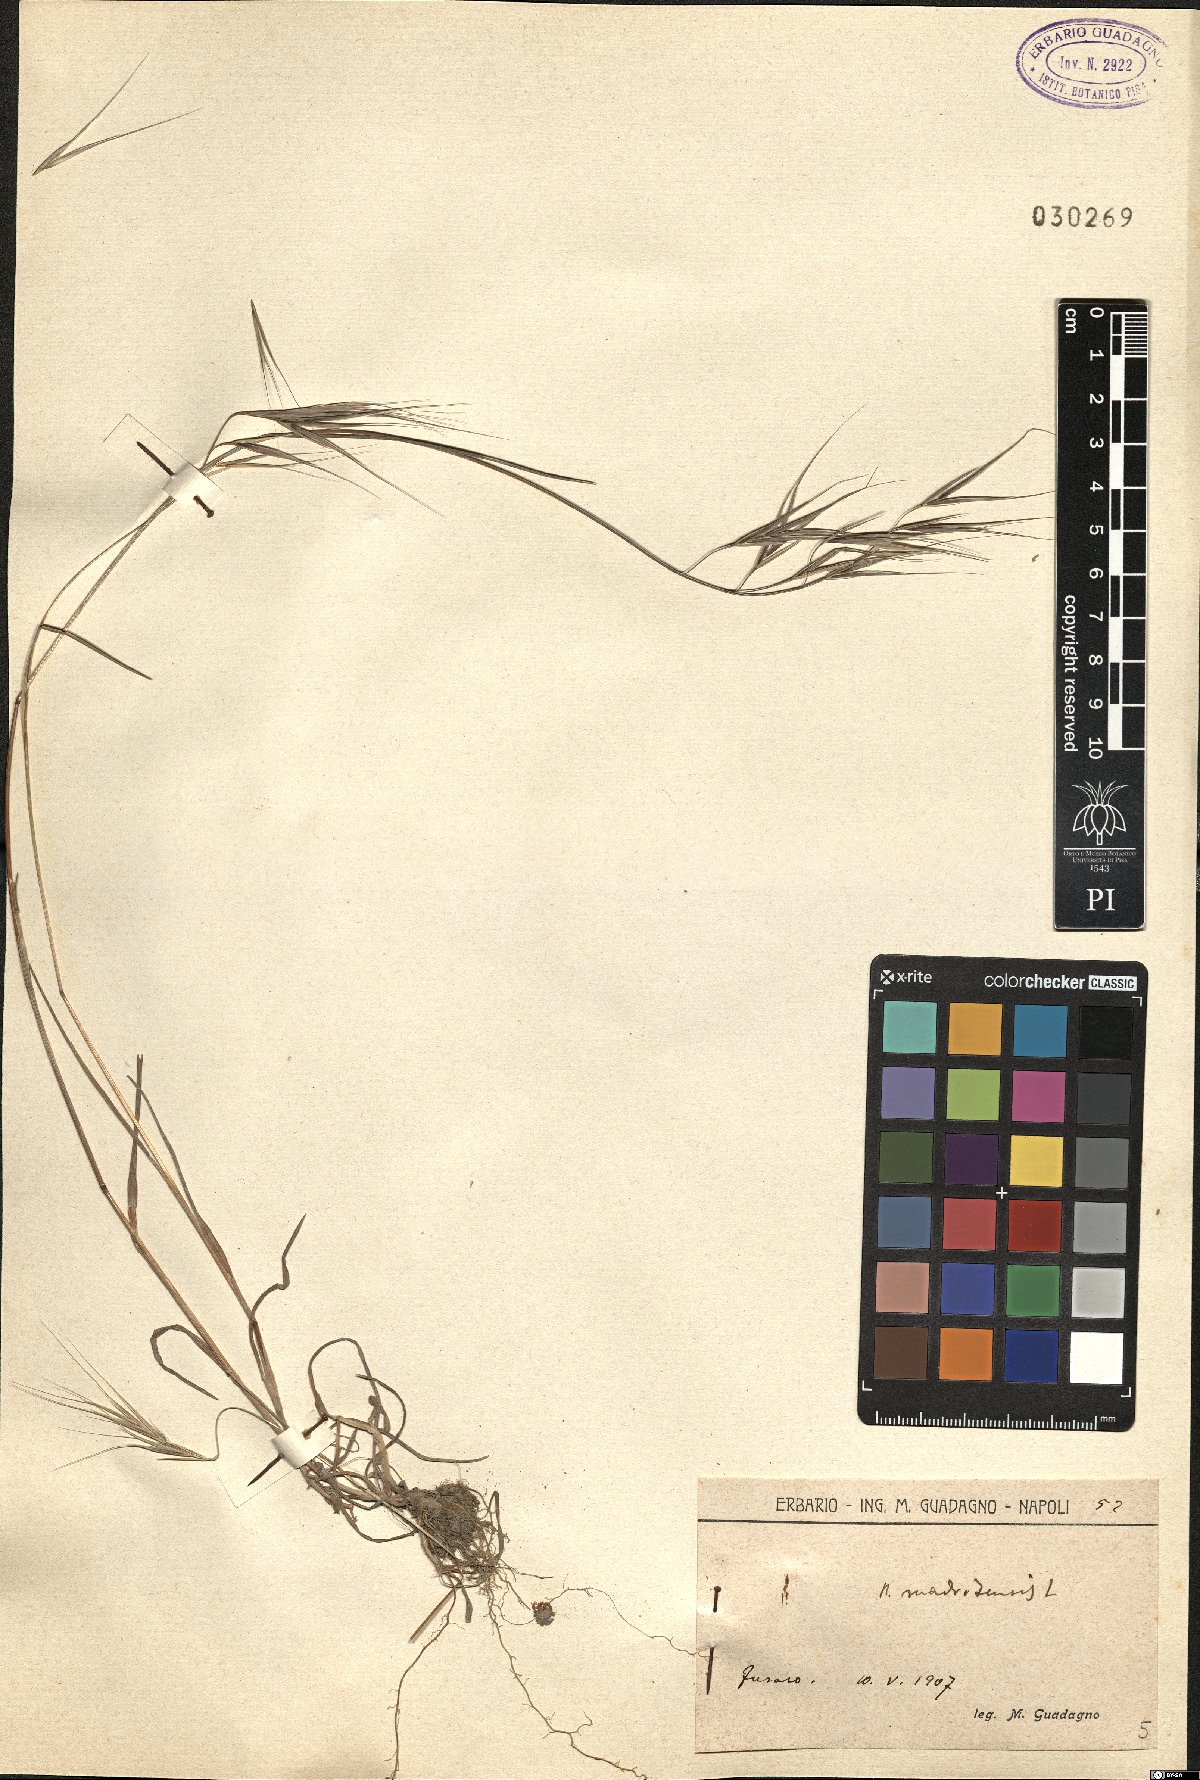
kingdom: Plantae
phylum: Tracheophyta
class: Liliopsida
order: Poales
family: Poaceae
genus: Bromus
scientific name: Bromus madritensis
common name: Compact brome
